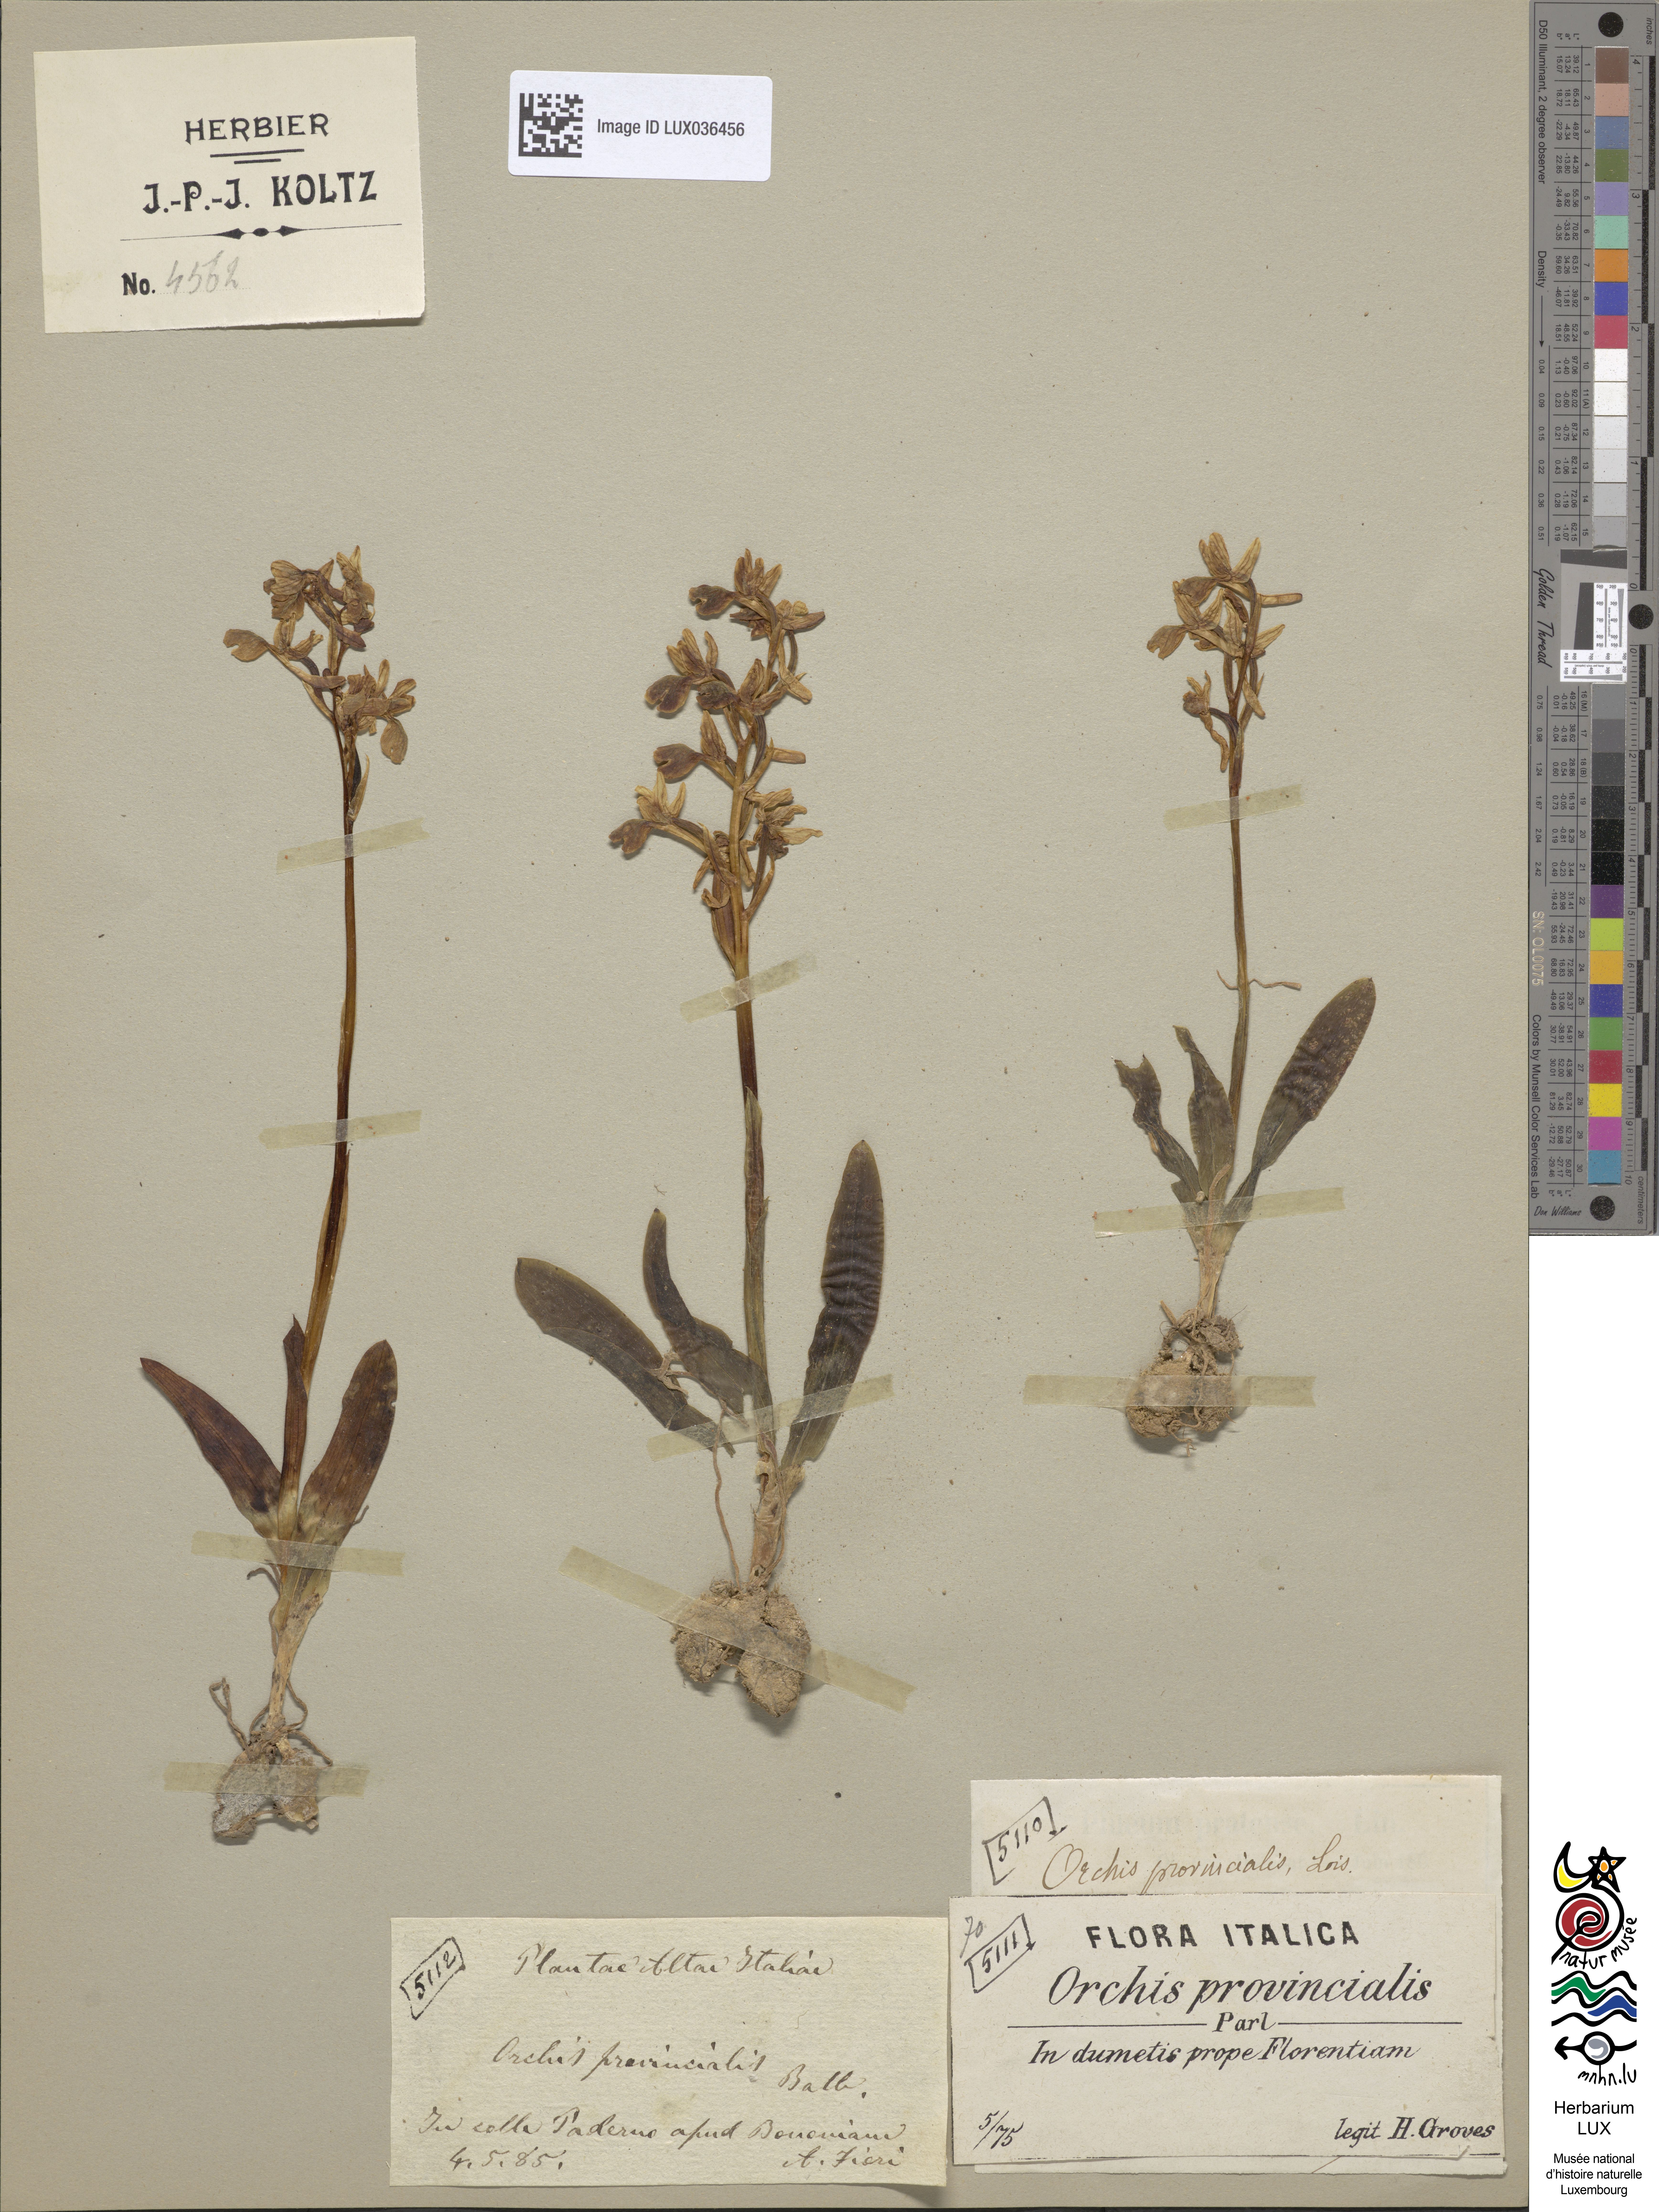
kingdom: Plantae
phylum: Tracheophyta
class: Liliopsida
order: Asparagales
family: Orchidaceae
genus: Orchis
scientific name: Orchis provincialis
